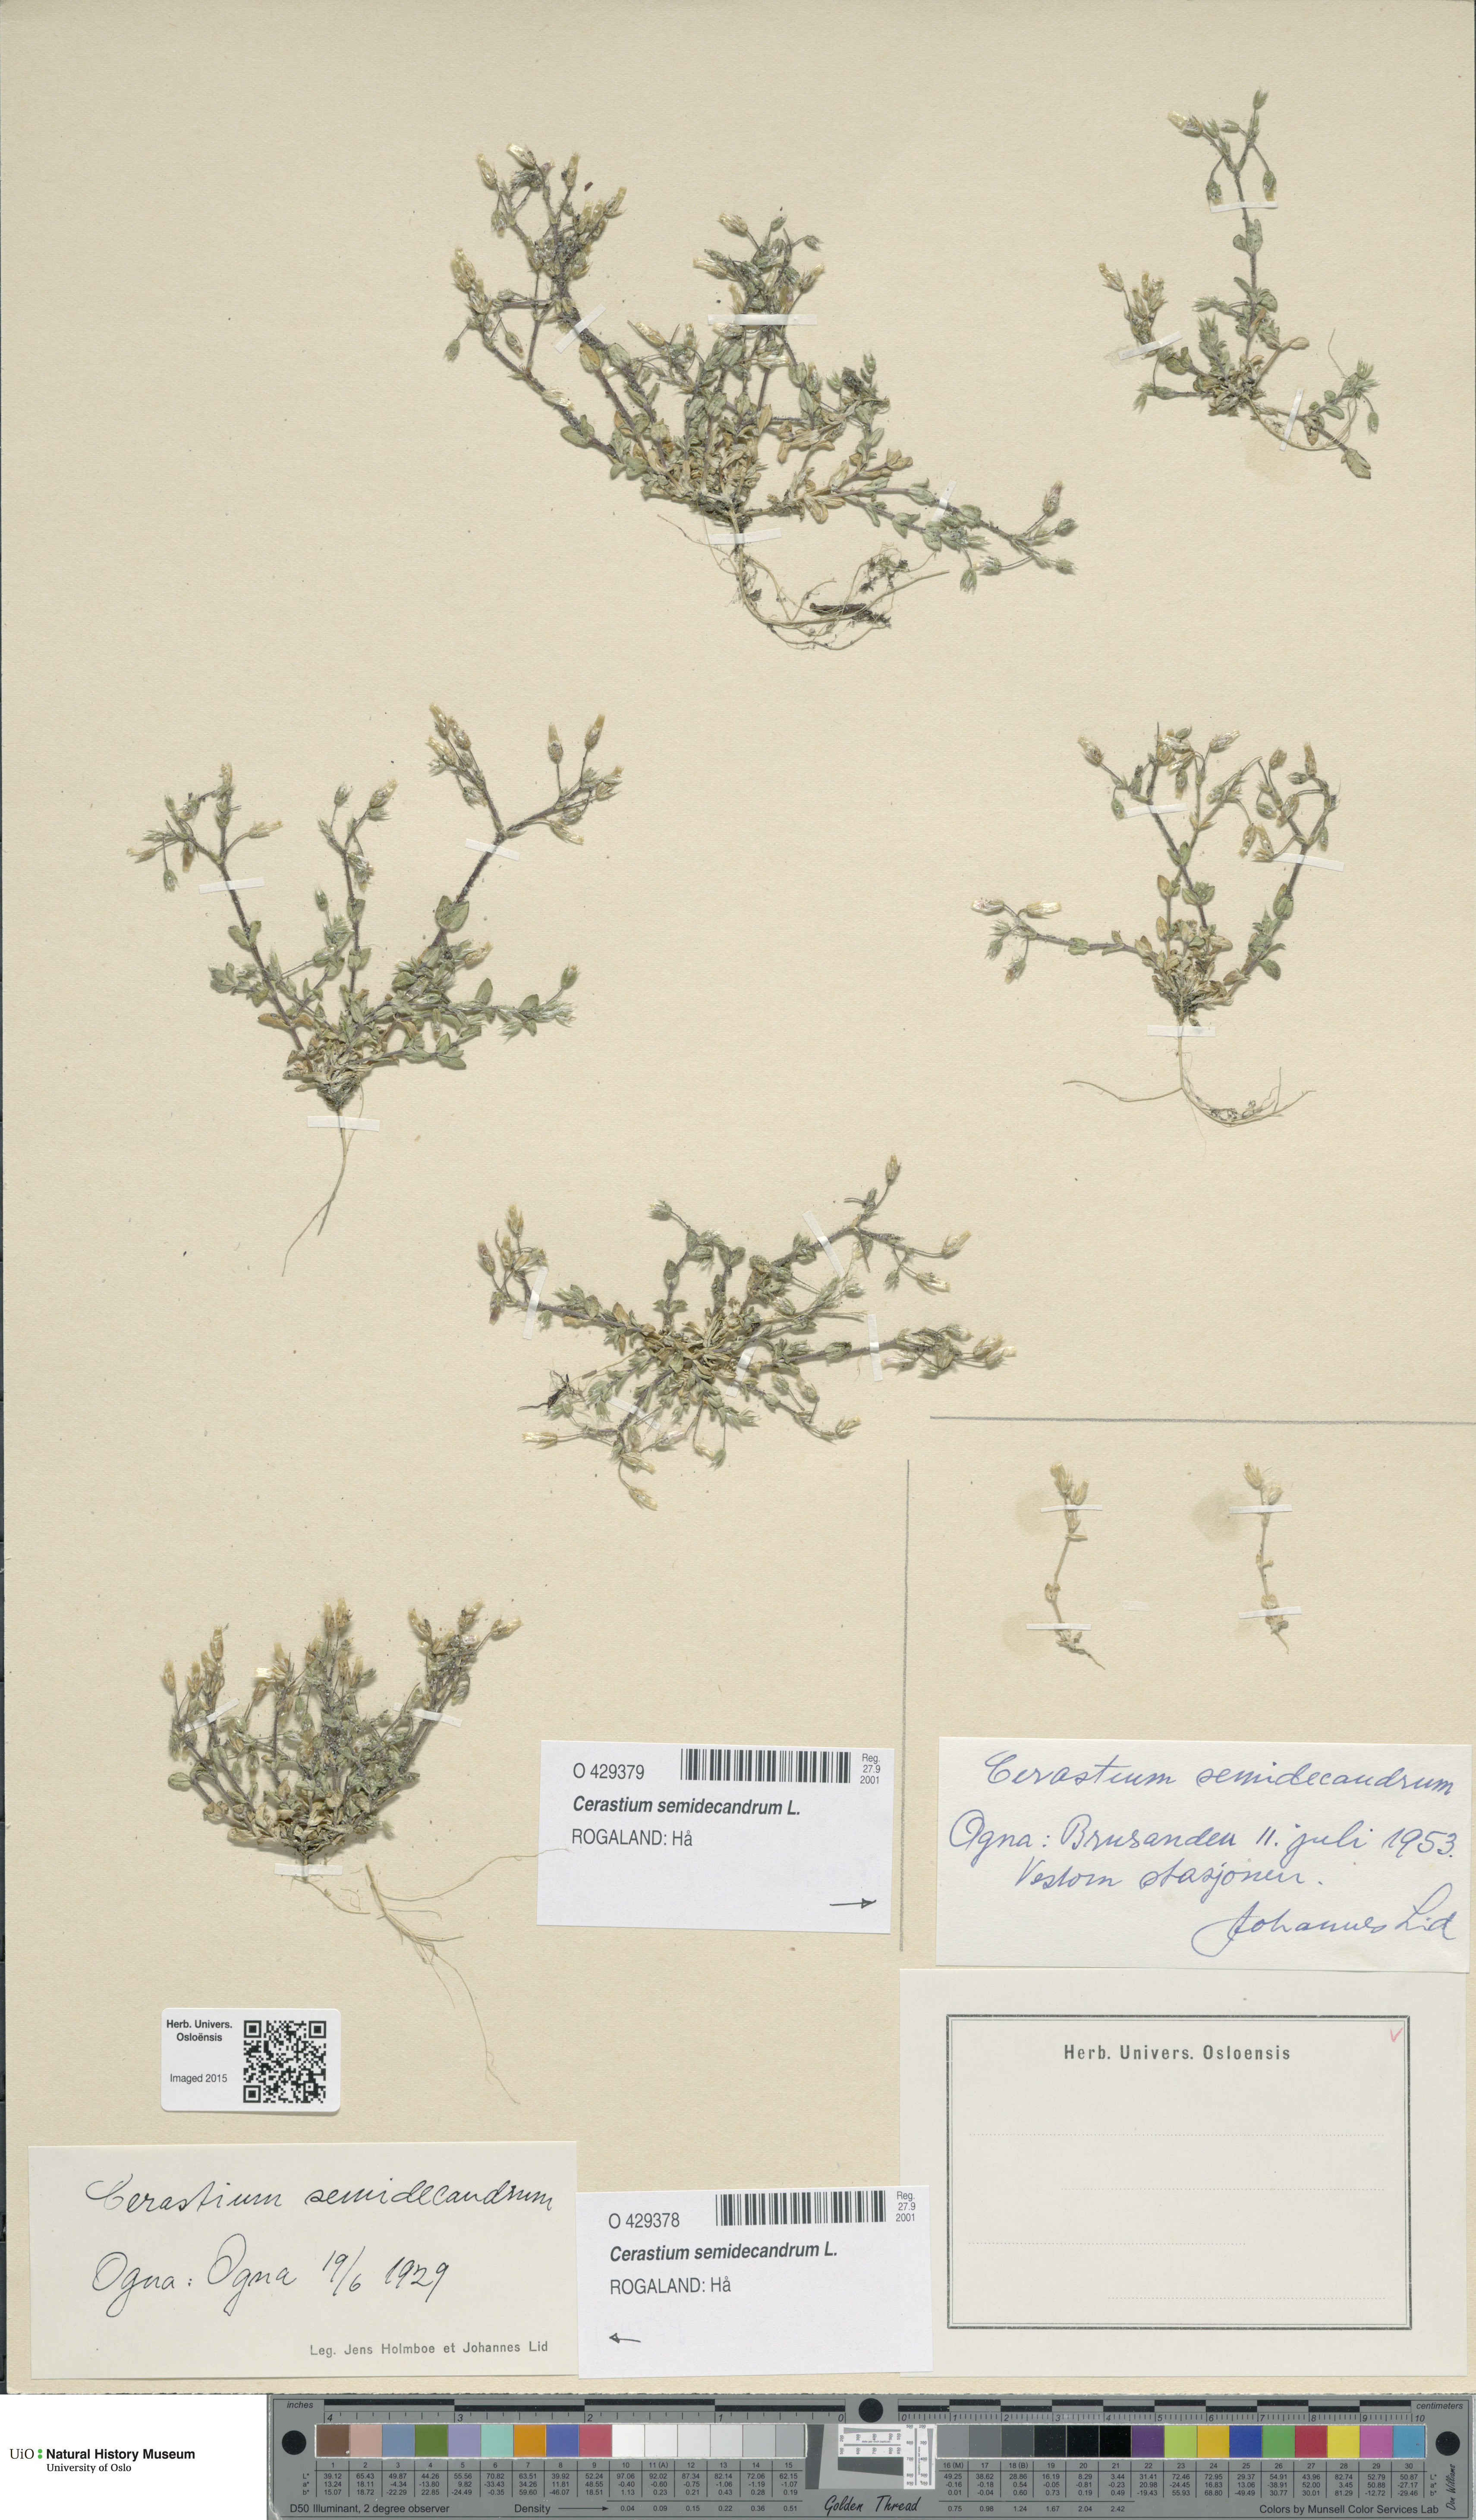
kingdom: Plantae
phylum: Tracheophyta
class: Magnoliopsida
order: Caryophyllales
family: Caryophyllaceae
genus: Cerastium
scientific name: Cerastium semidecandrum
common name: Little mouse-ear
